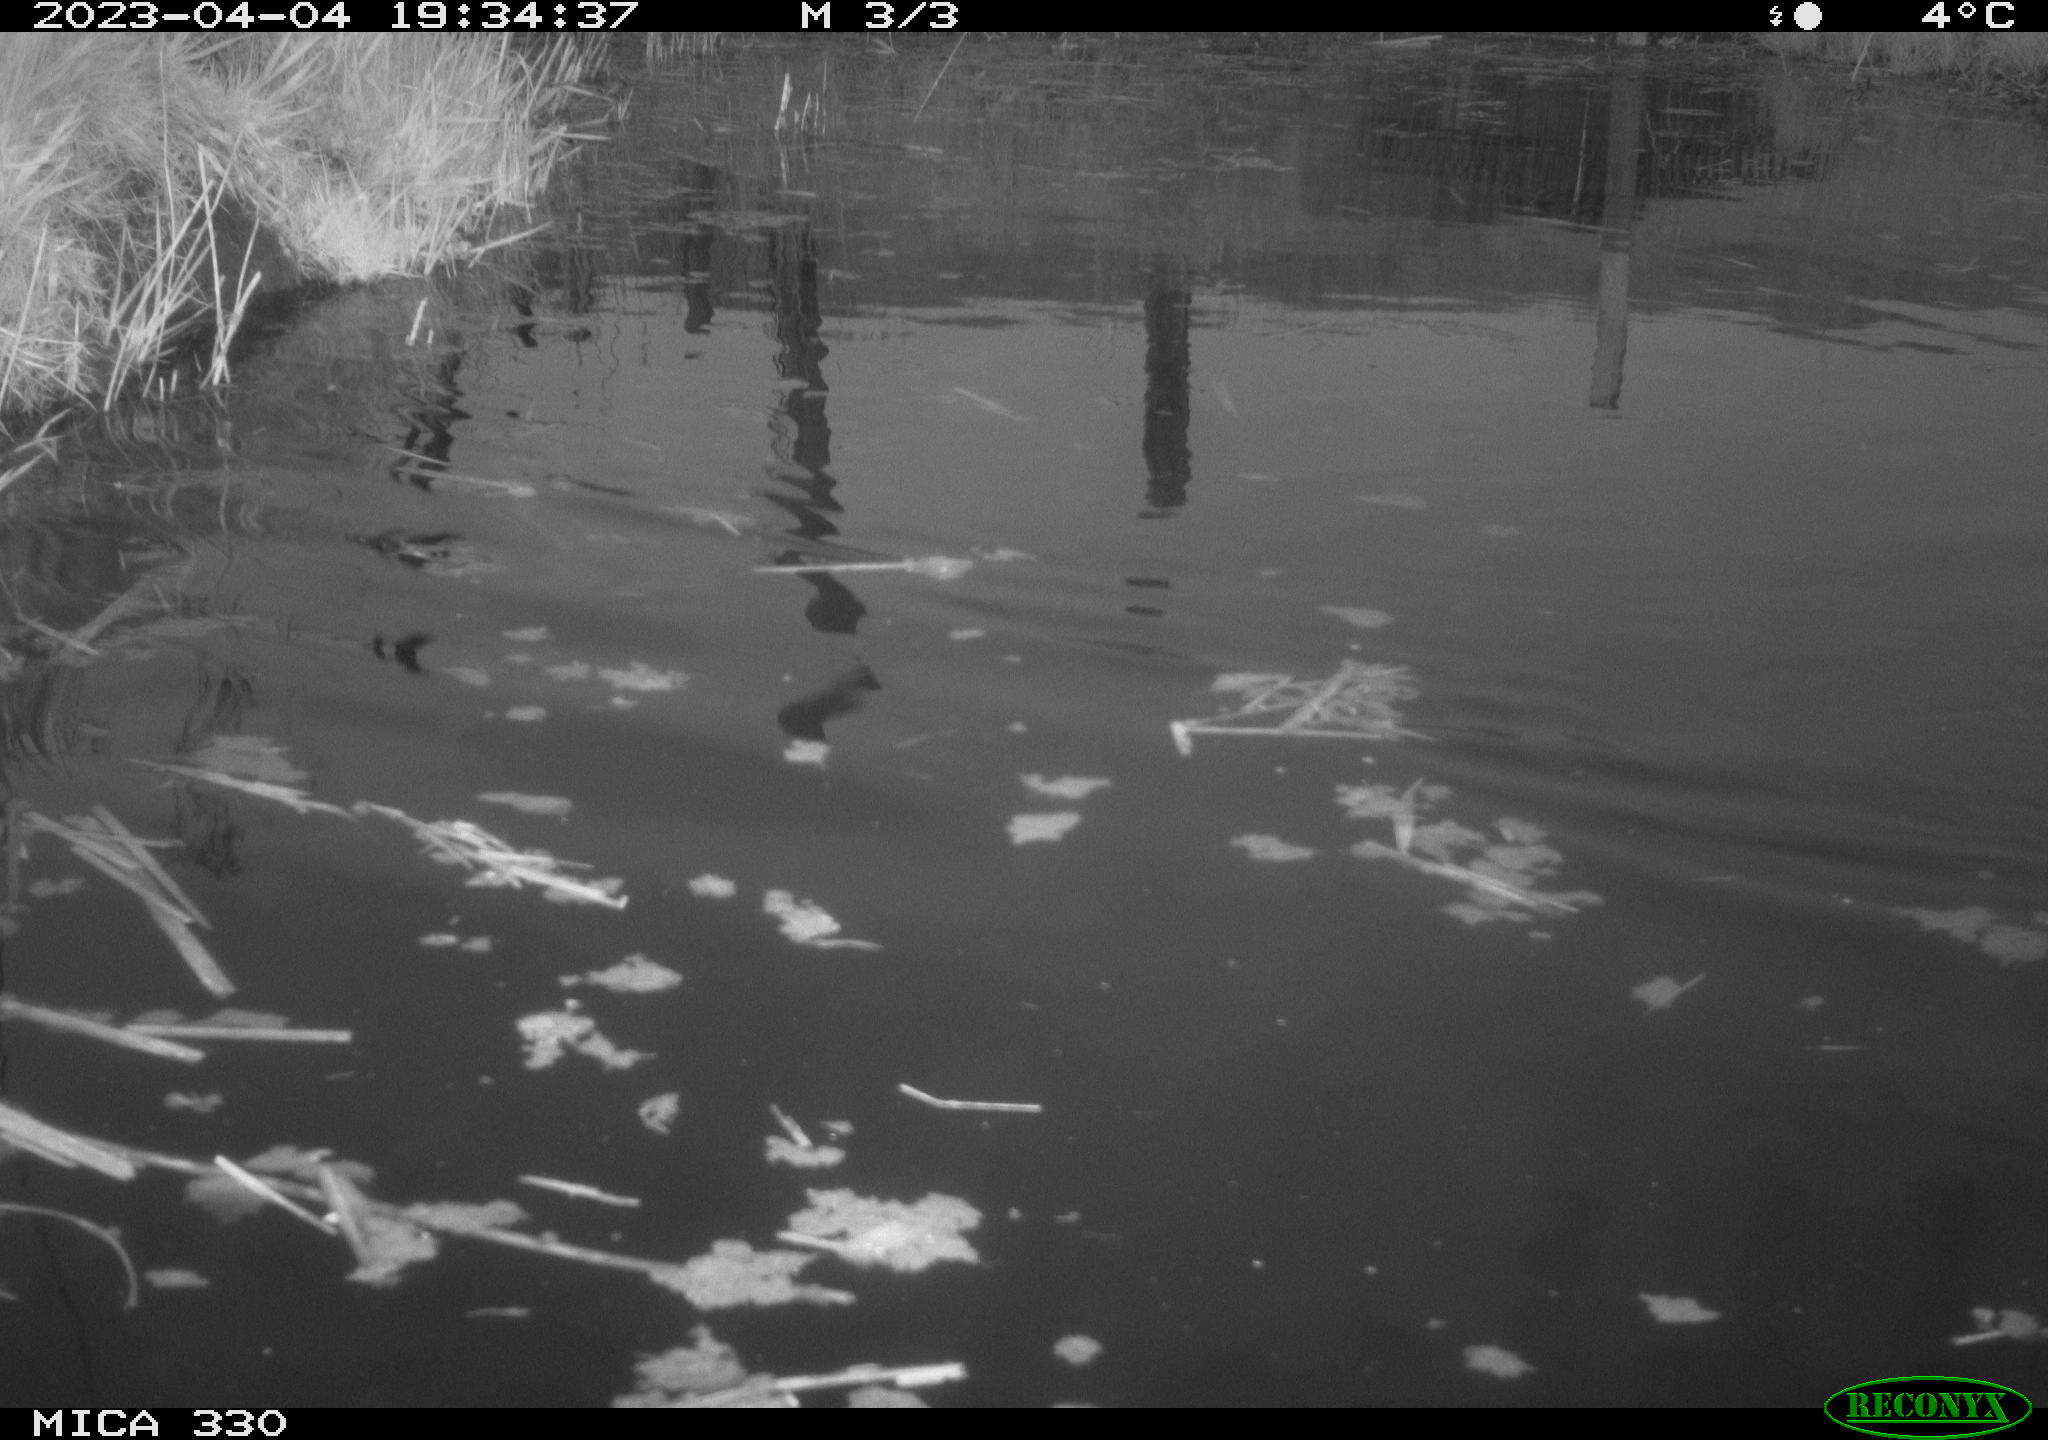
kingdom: Animalia
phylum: Chordata
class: Aves
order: Anseriformes
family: Anatidae
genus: Anas
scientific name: Anas
